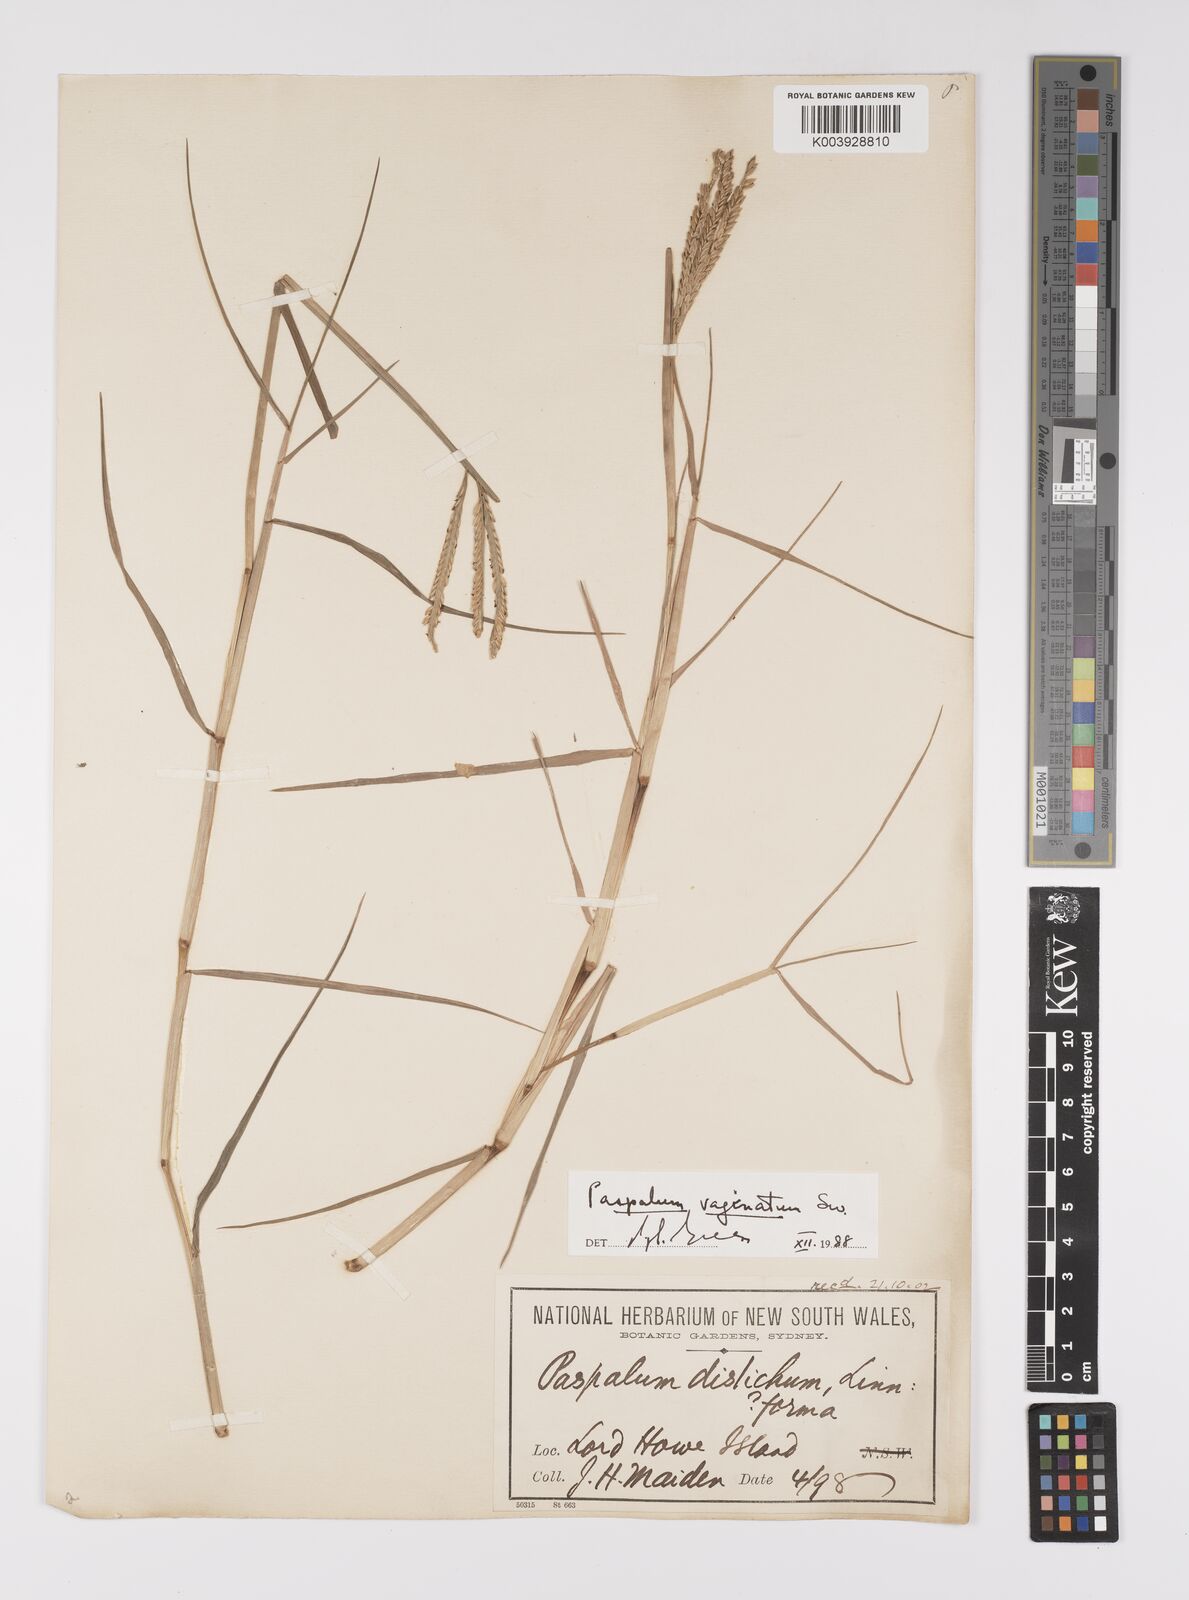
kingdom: Plantae
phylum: Tracheophyta
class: Liliopsida
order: Poales
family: Poaceae
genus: Paspalum
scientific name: Paspalum vaginatum
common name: Seashore paspalum
